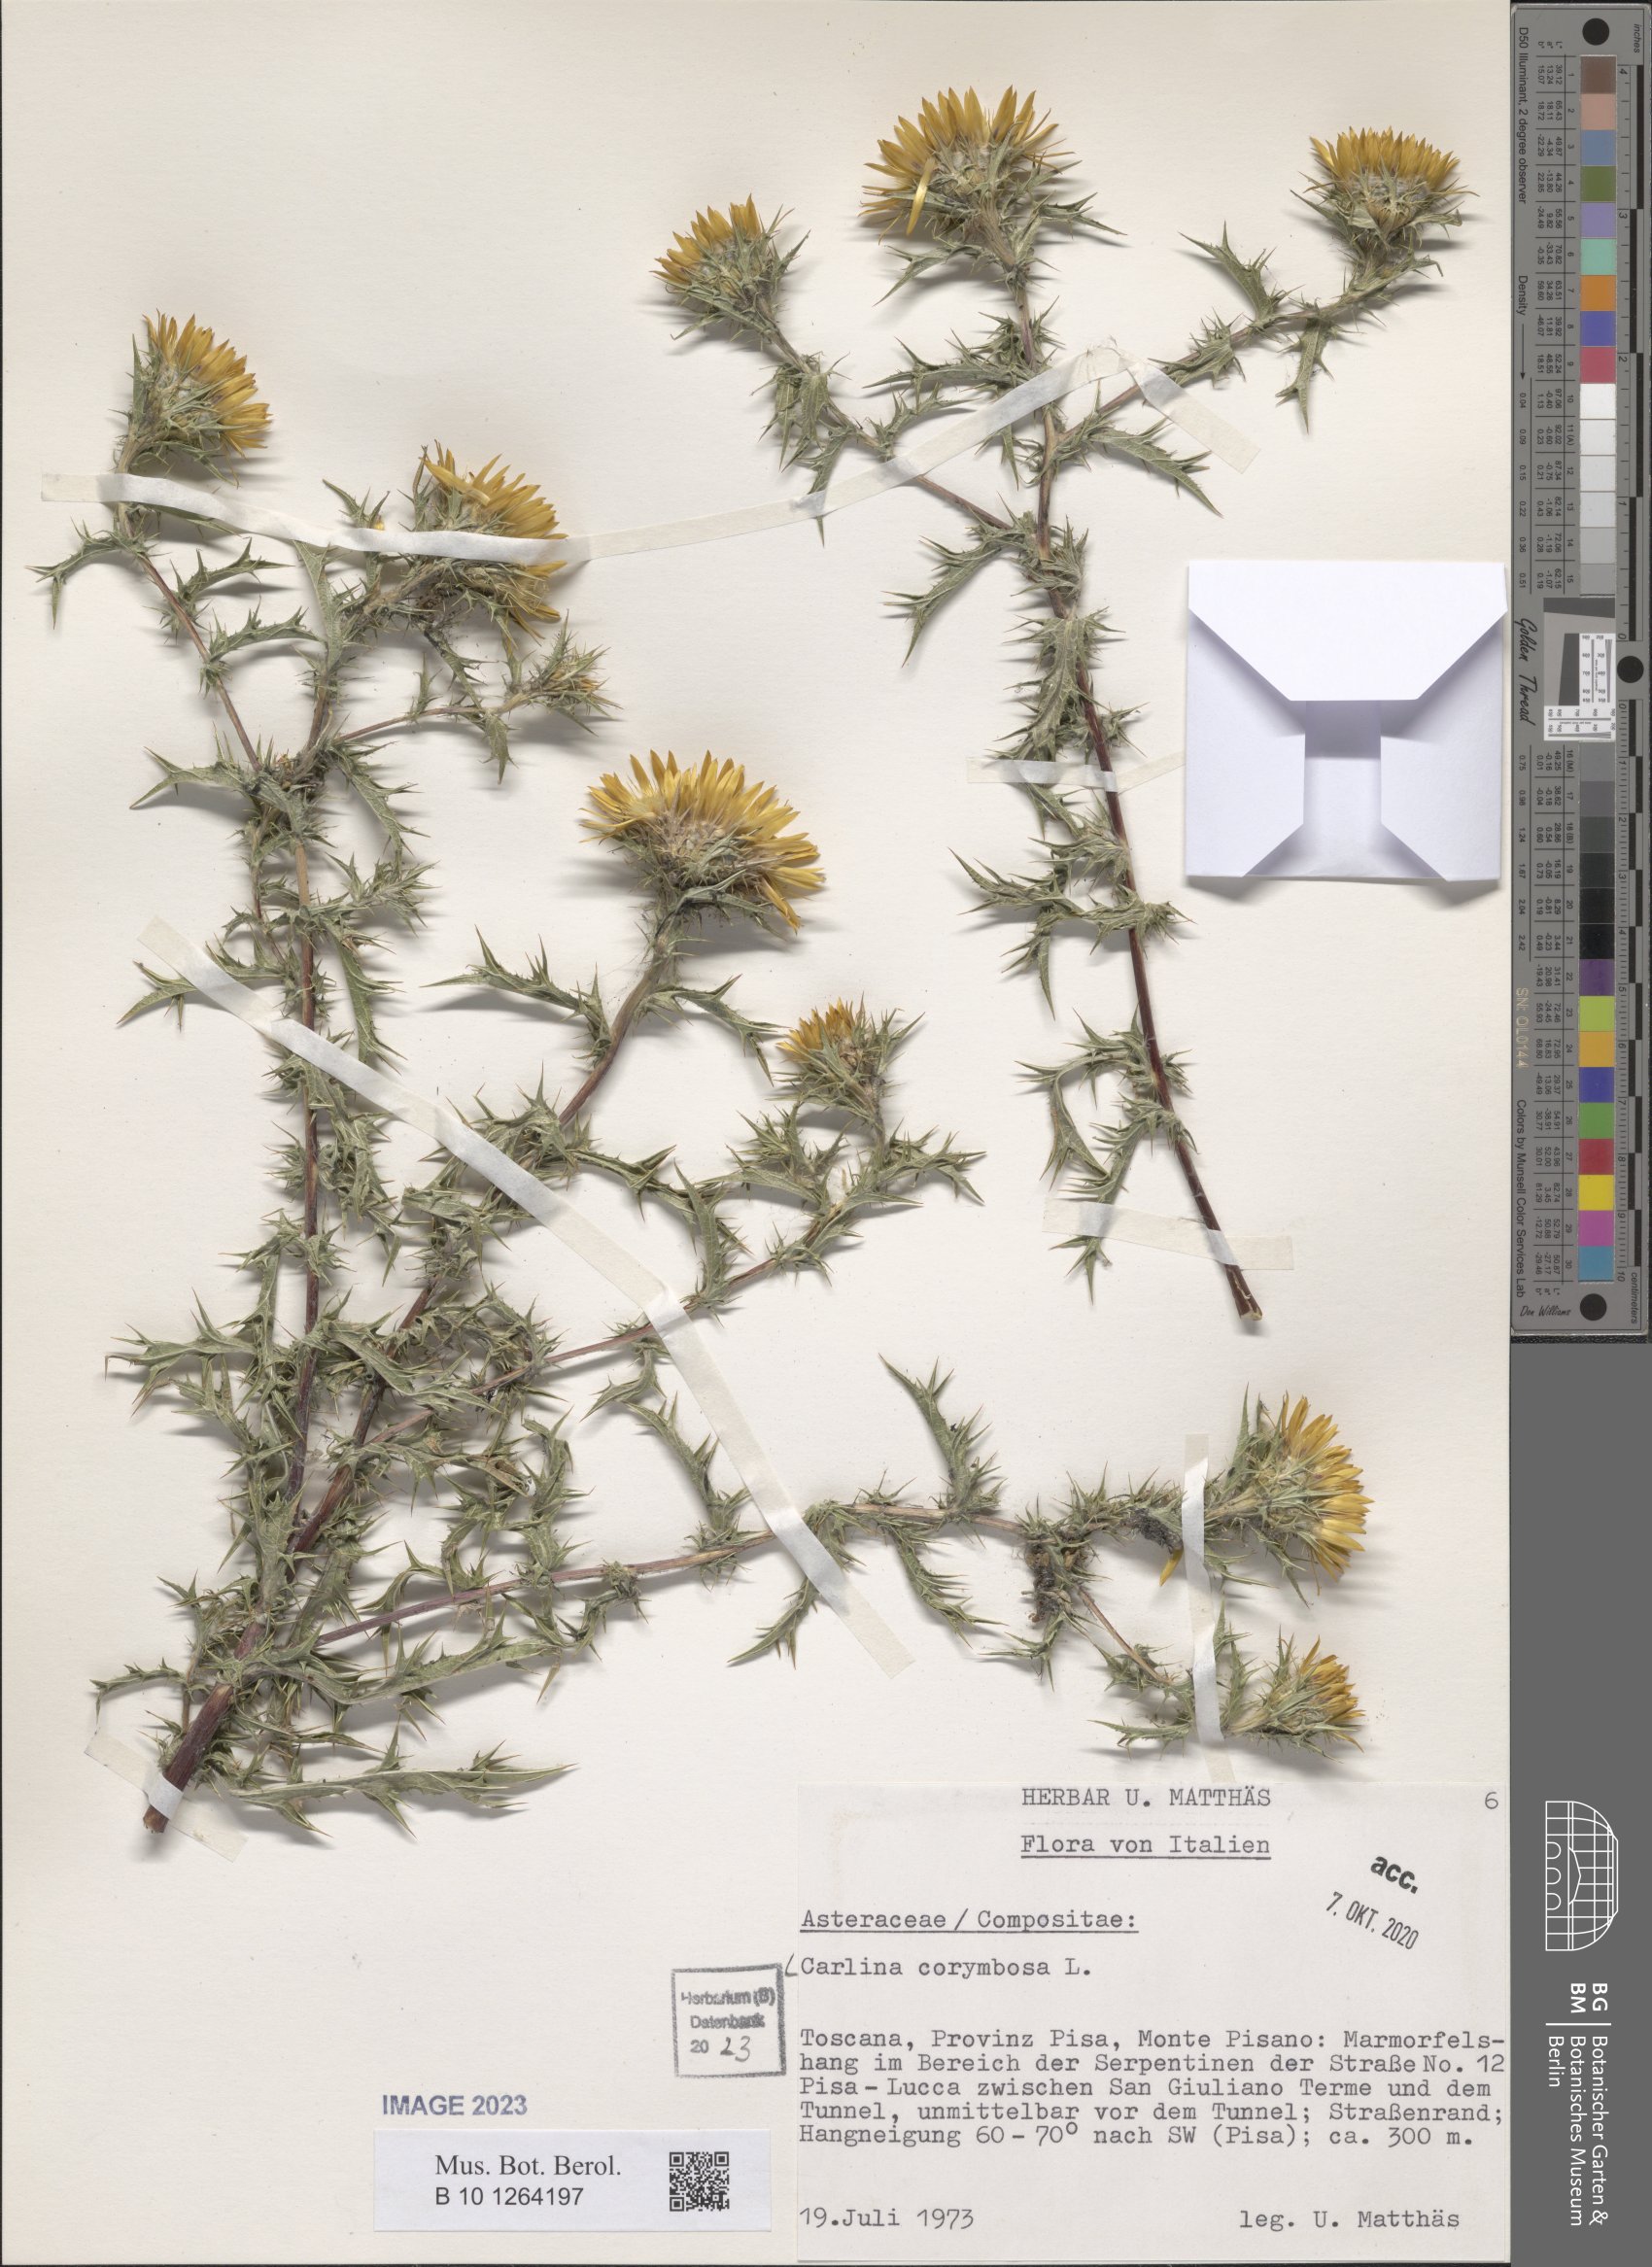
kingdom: Plantae
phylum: Tracheophyta
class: Magnoliopsida
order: Asterales
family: Asteraceae
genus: Carlina
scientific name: Carlina corymbosa
